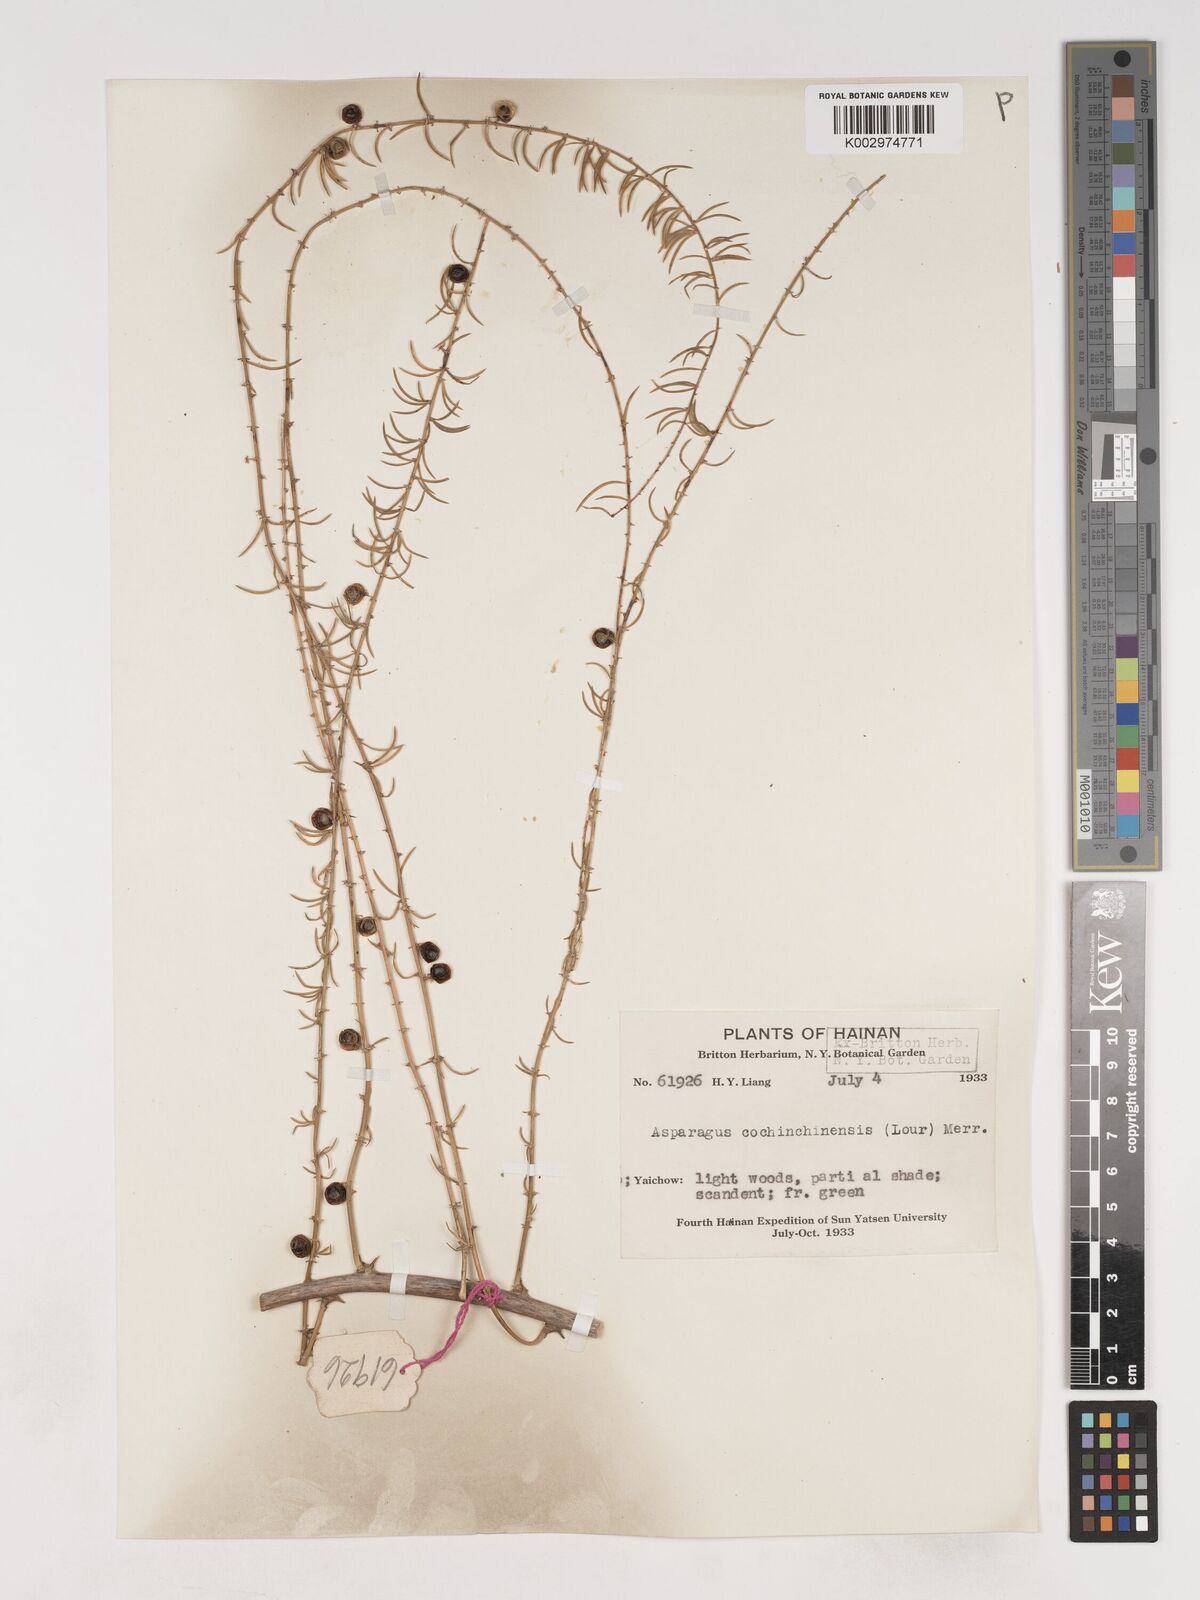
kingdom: Plantae
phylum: Tracheophyta
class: Liliopsida
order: Asparagales
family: Asparagaceae
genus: Asparagus
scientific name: Asparagus cochinchinensis
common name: Chinese asparagus
